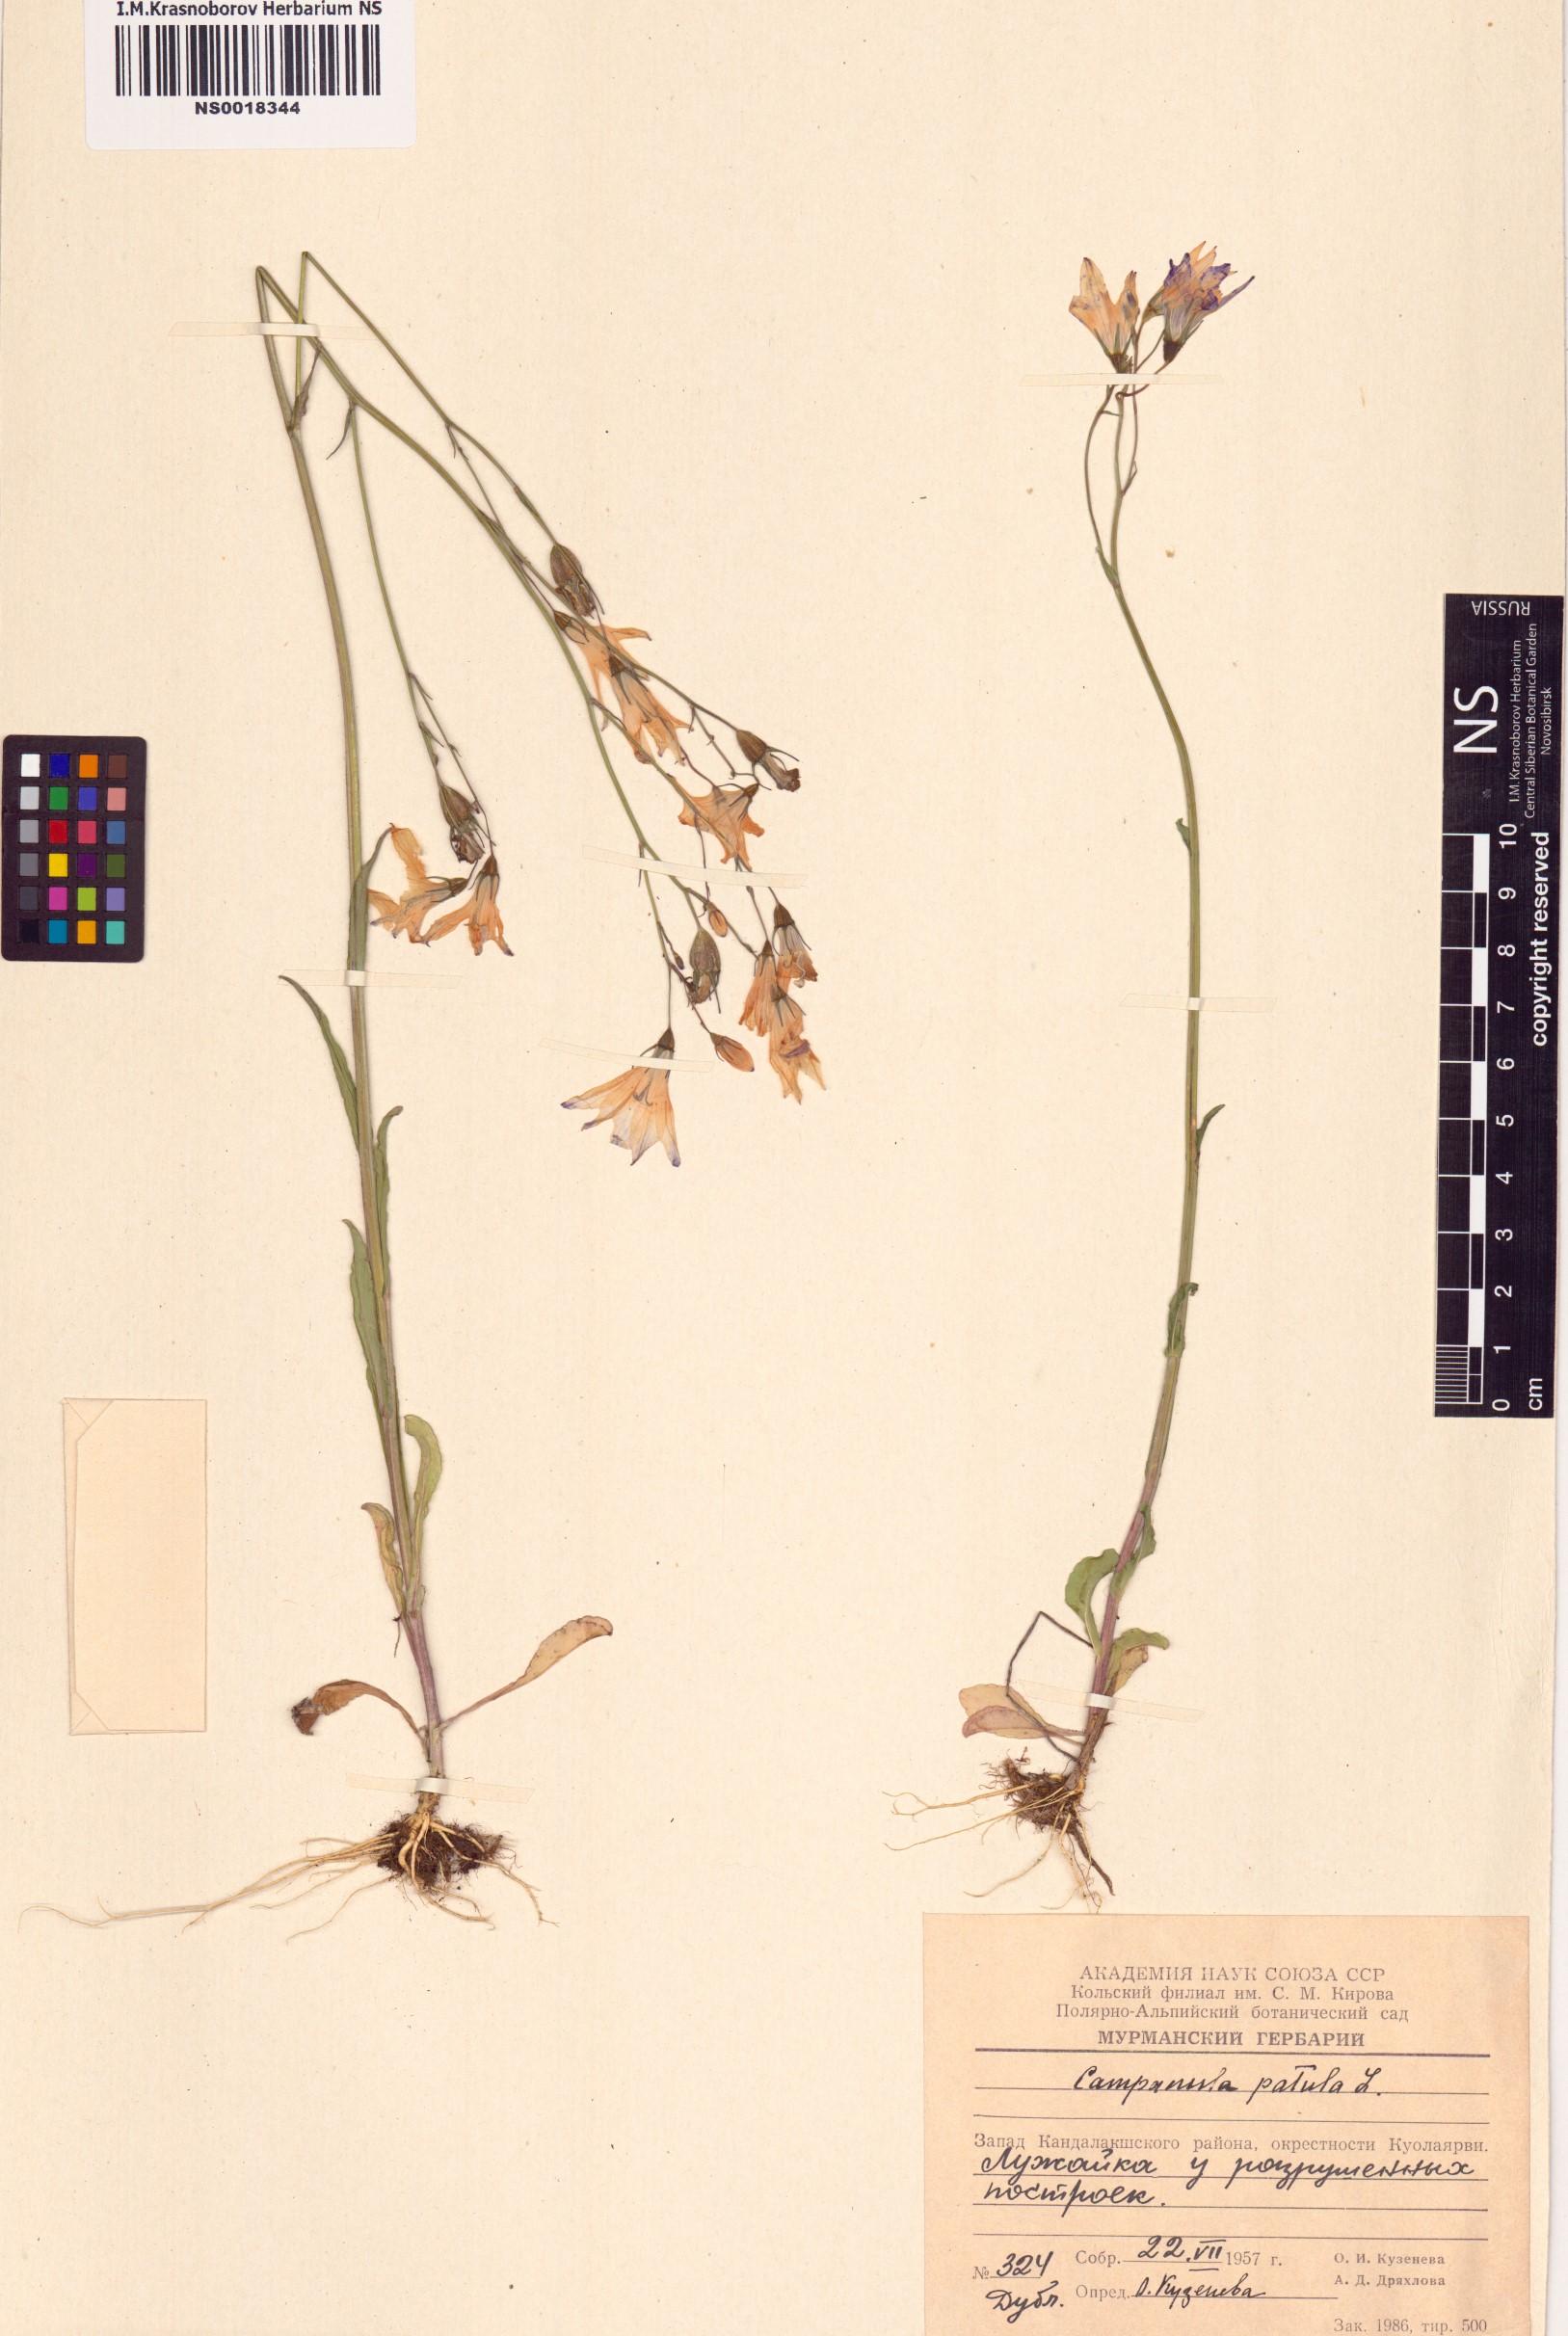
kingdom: Plantae
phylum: Tracheophyta
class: Magnoliopsida
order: Asterales
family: Campanulaceae
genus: Campanula
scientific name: Campanula patula
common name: Spreading bellflower
